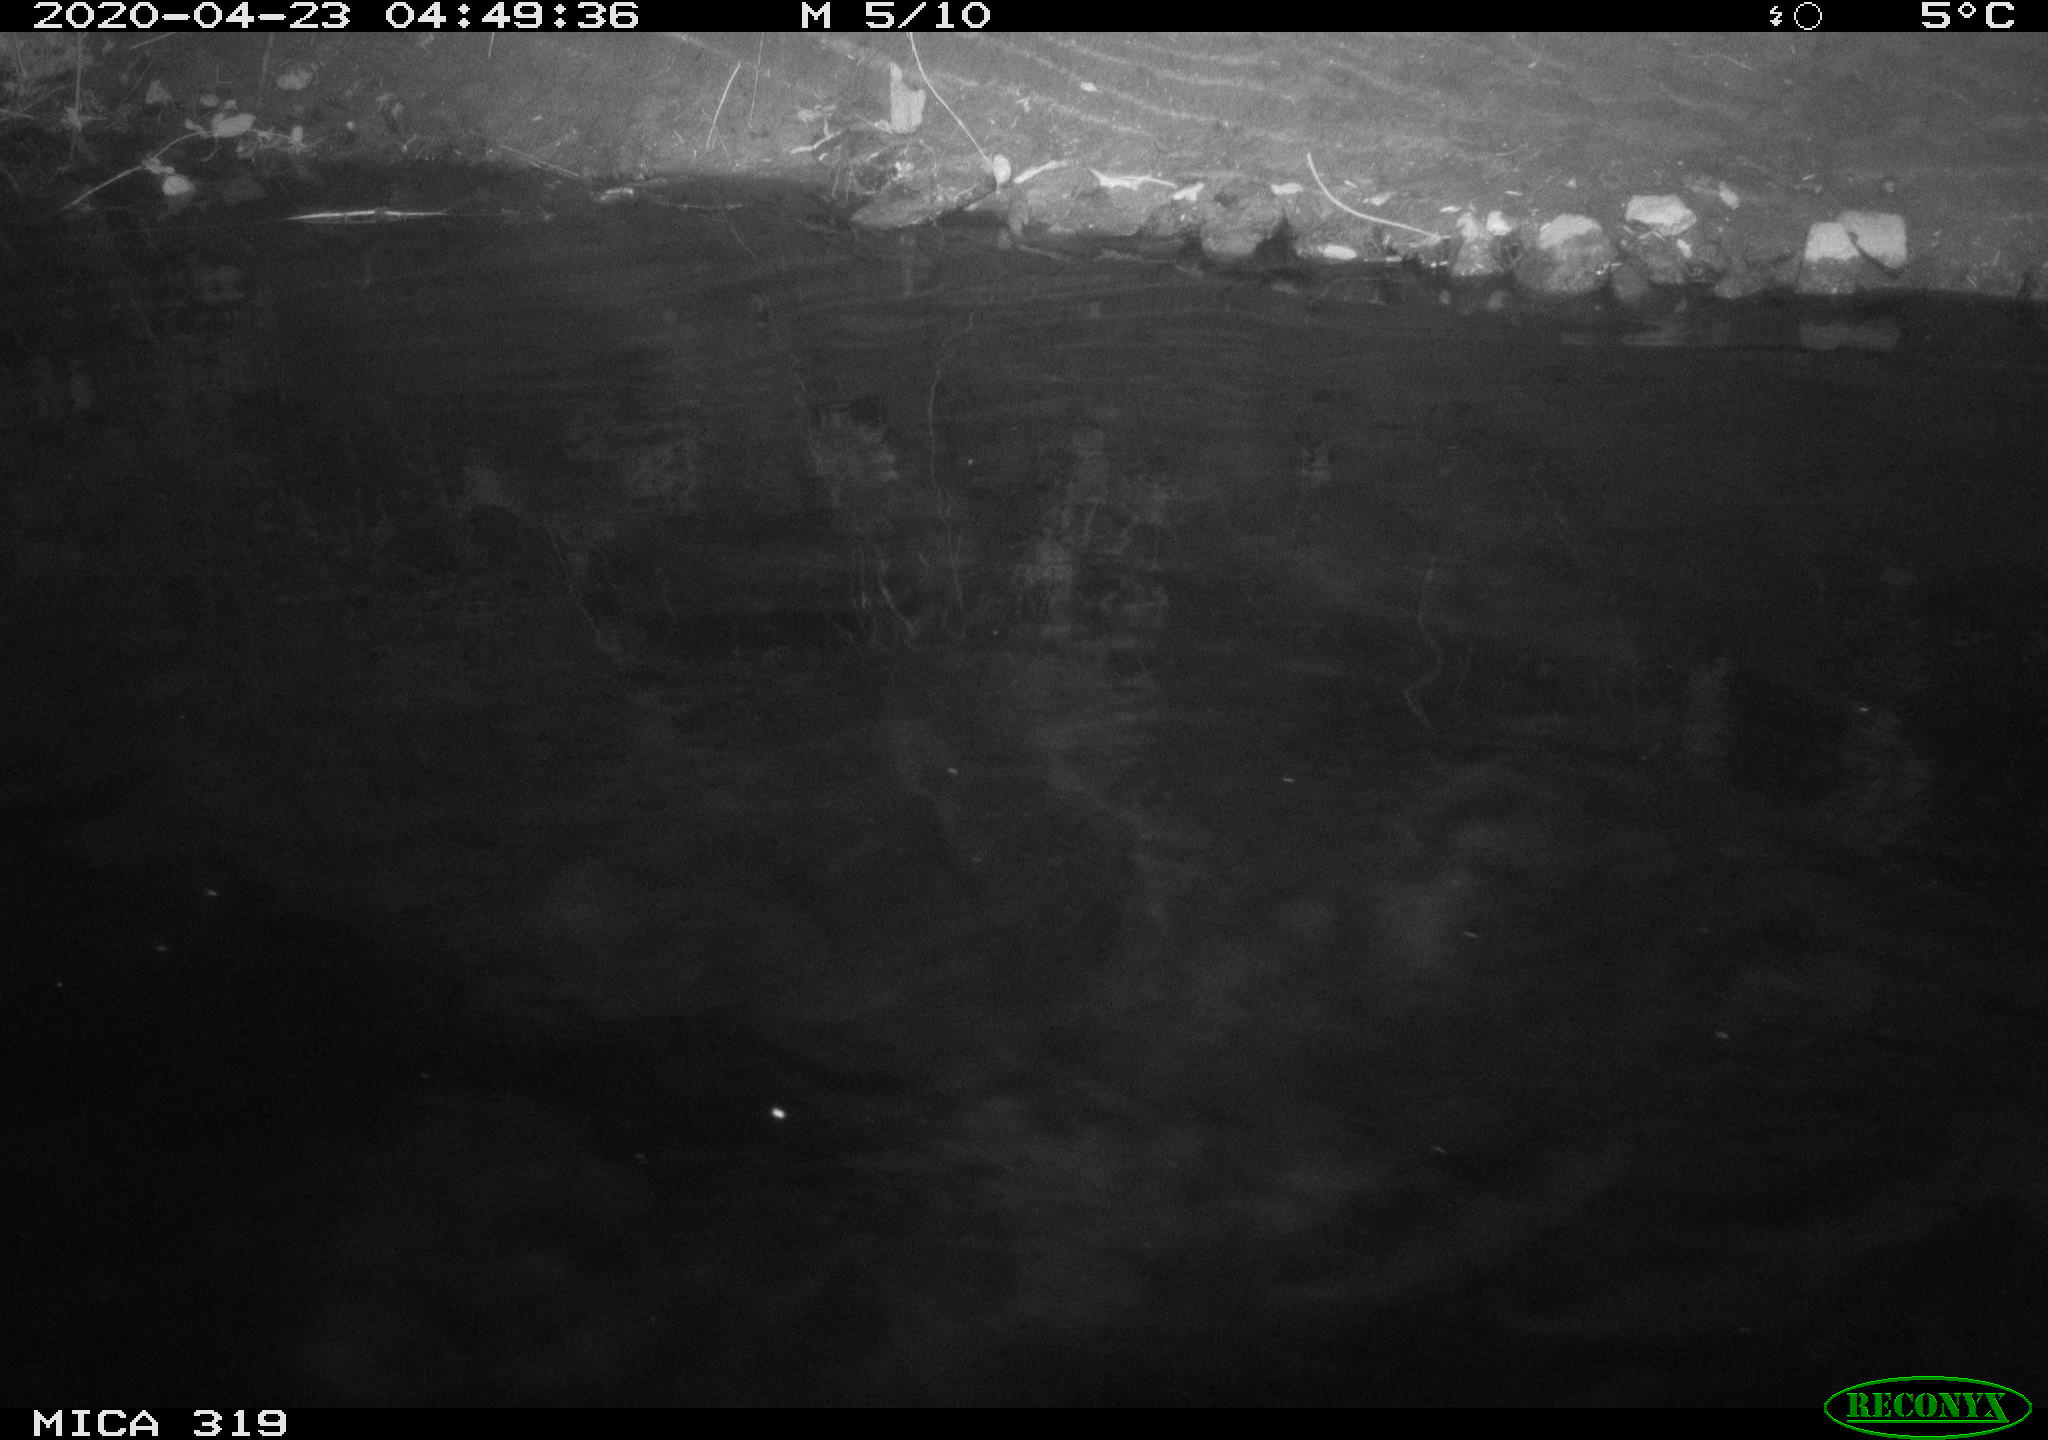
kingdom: Animalia
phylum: Chordata
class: Aves
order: Anseriformes
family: Anatidae
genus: Anas
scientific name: Anas platyrhynchos
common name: Mallard
